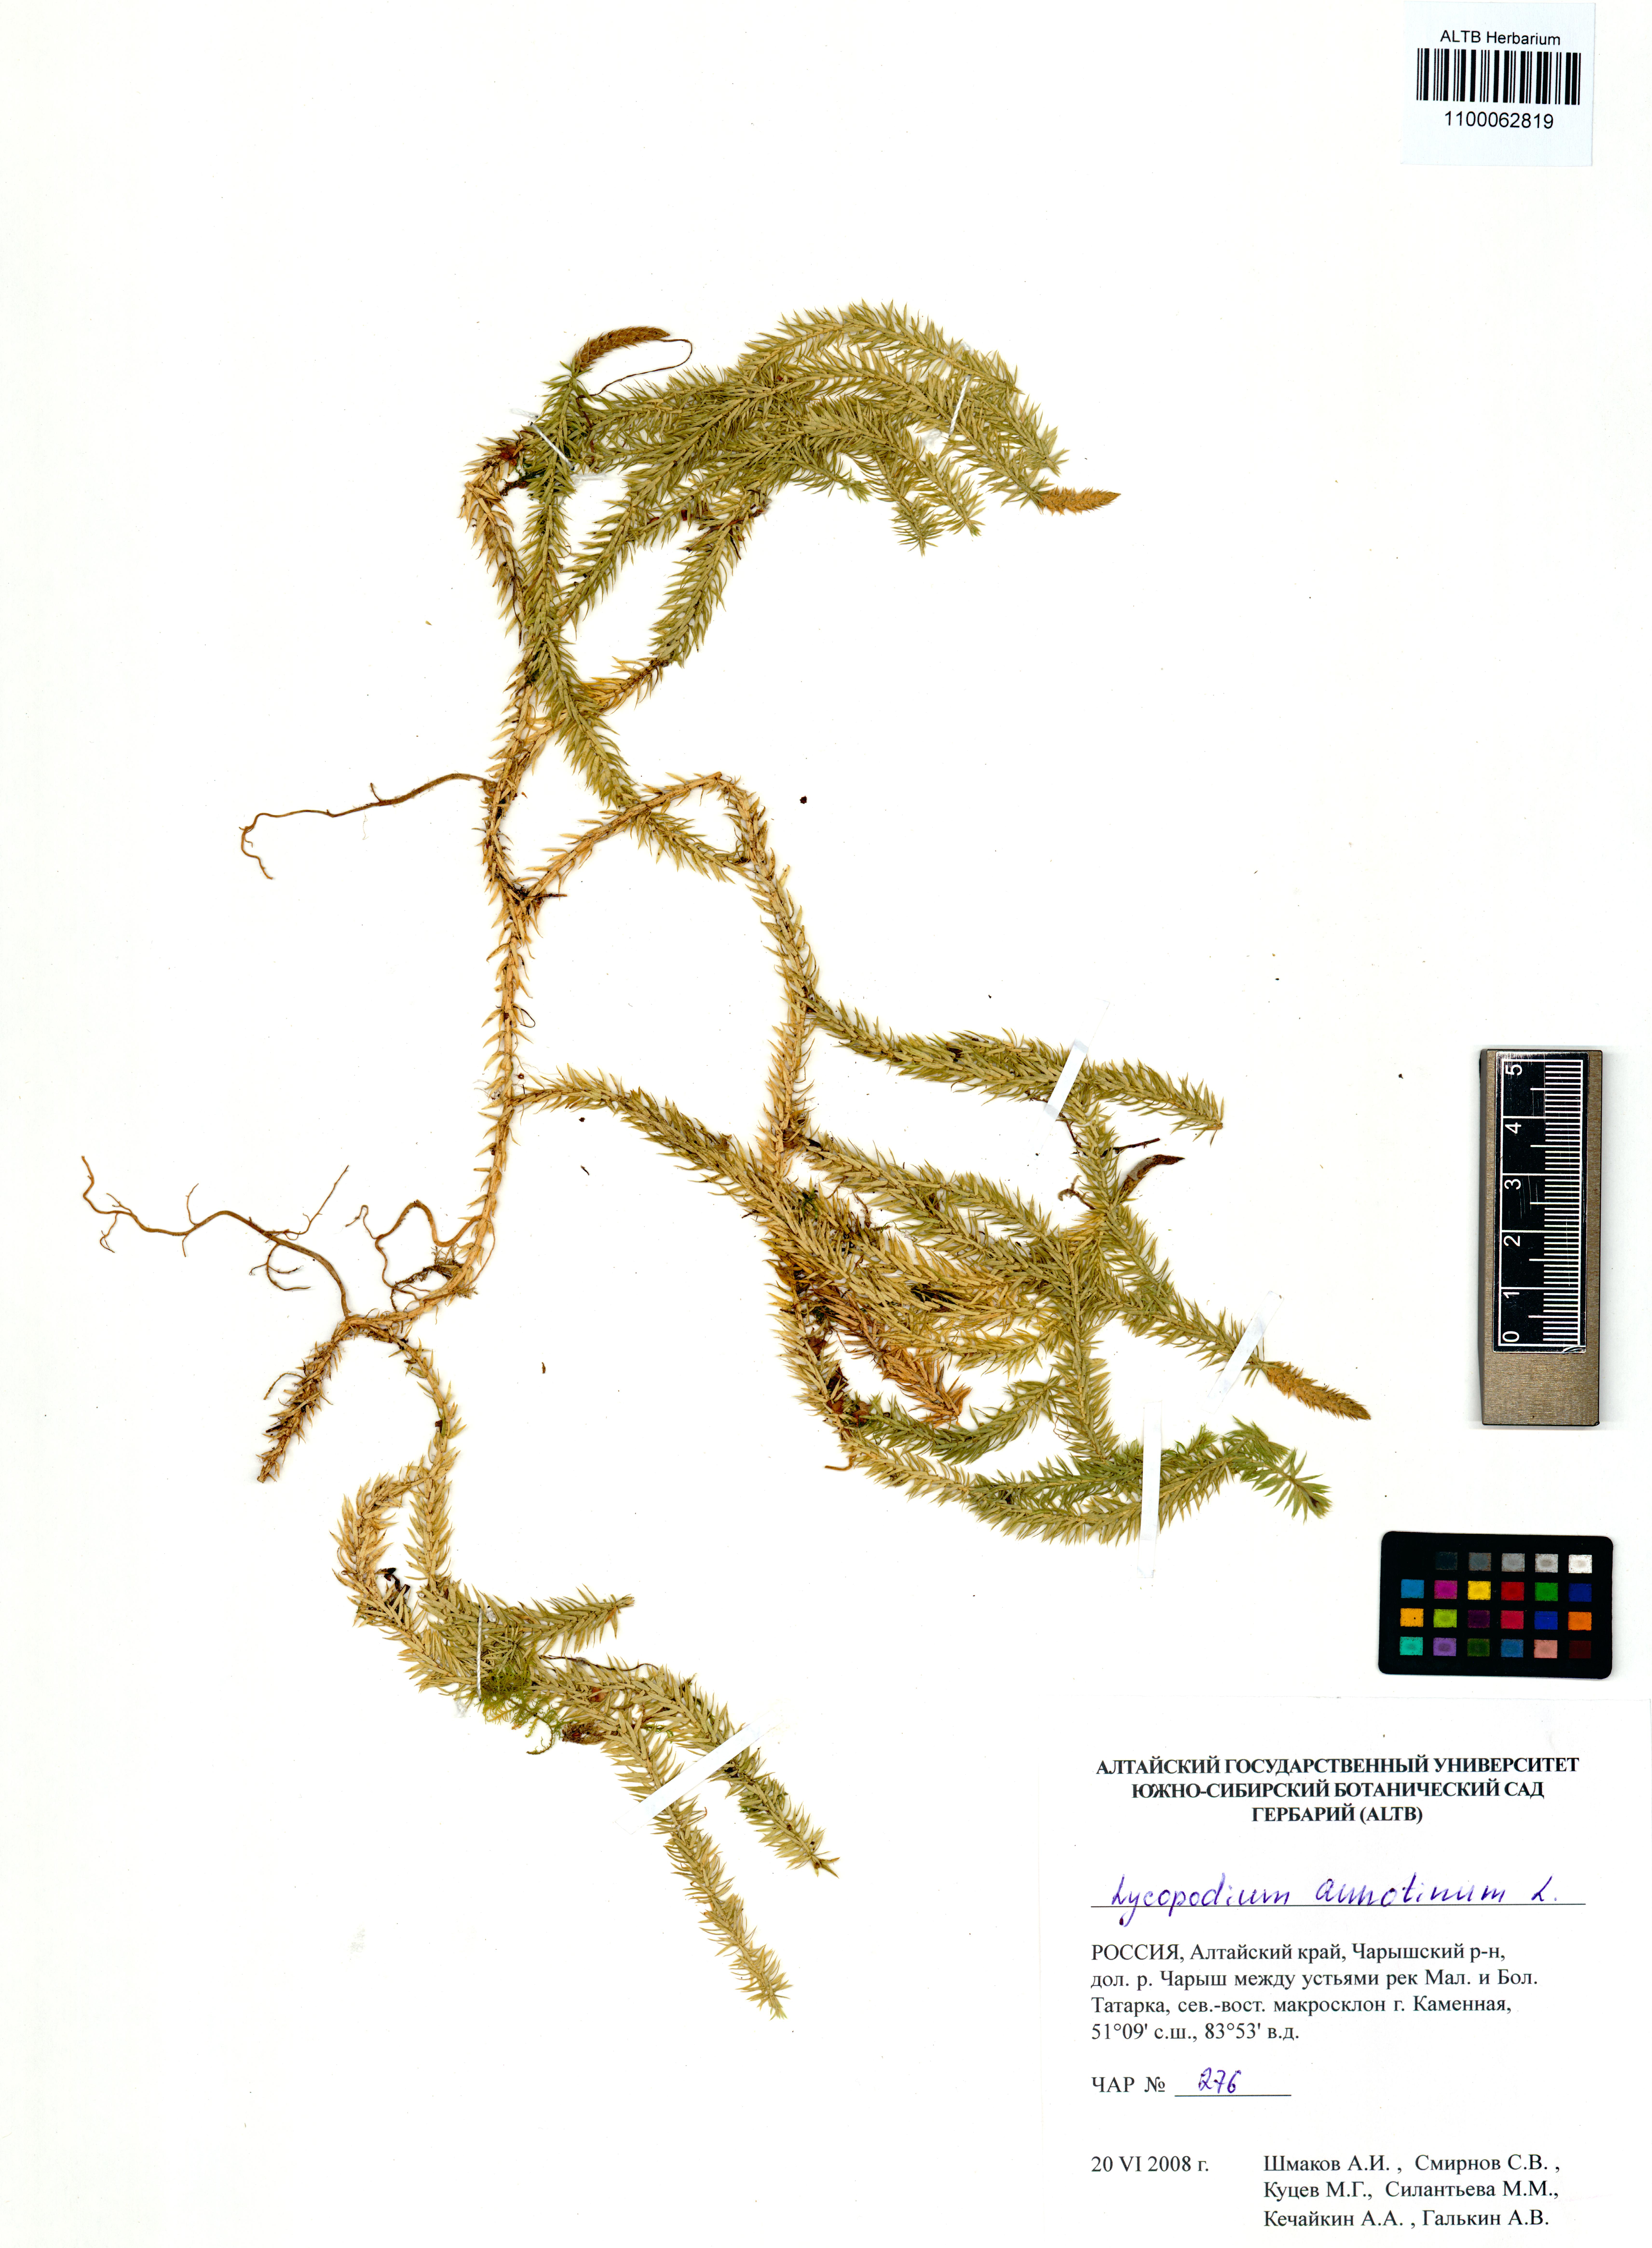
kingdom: Plantae
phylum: Tracheophyta
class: Lycopodiopsida
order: Lycopodiales
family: Lycopodiaceae
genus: Spinulum
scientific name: Spinulum annotinum
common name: Interrupted club-moss
